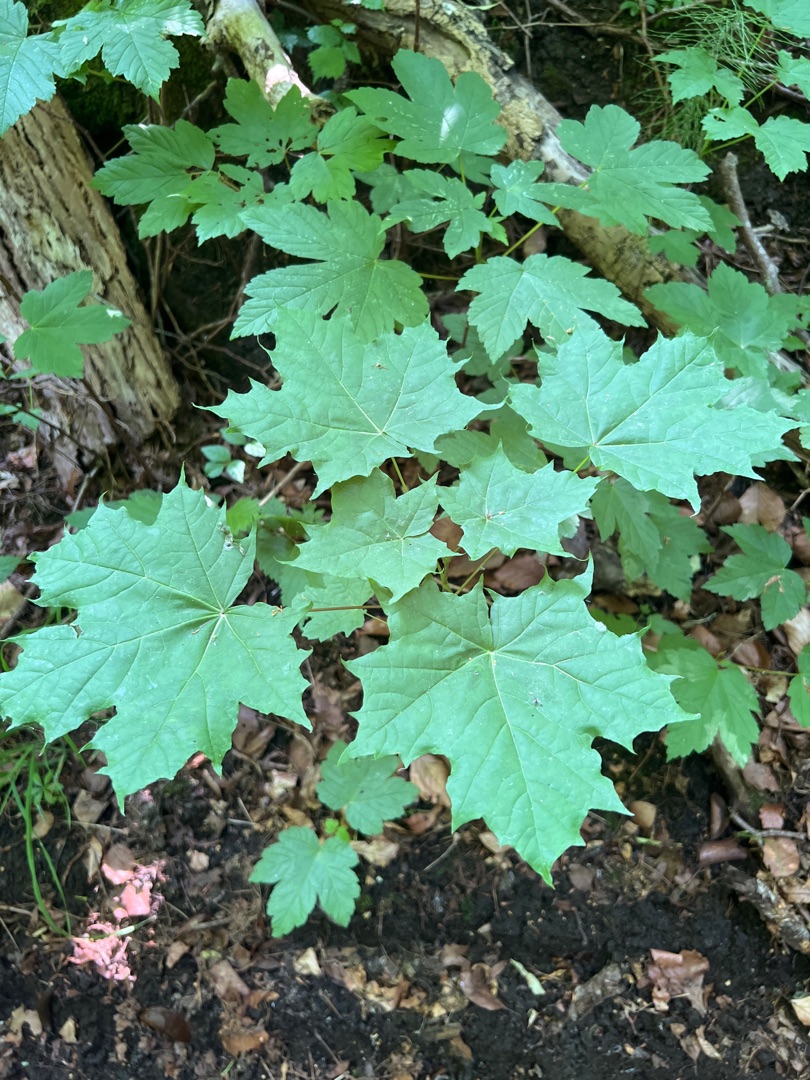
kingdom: Plantae
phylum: Tracheophyta
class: Magnoliopsida
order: Sapindales
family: Sapindaceae
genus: Acer
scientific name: Acer platanoides
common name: Spids-løn
